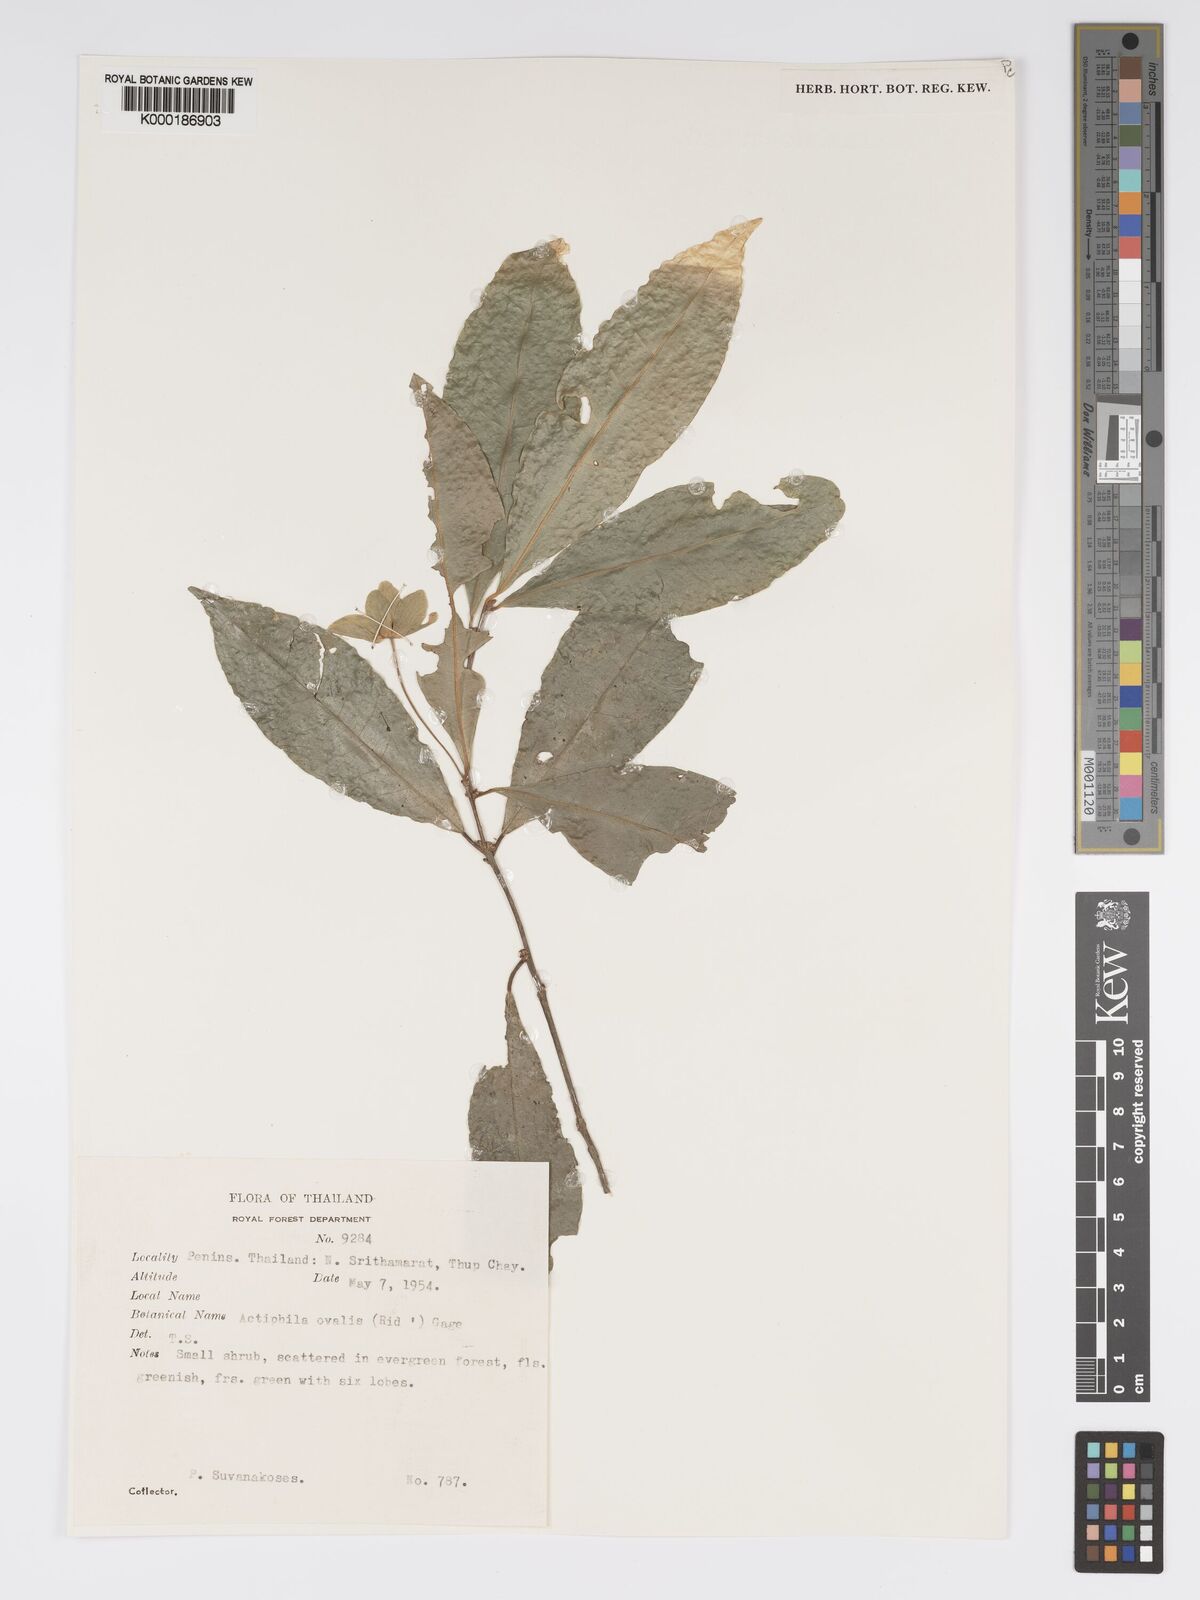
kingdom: Plantae
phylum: Tracheophyta
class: Magnoliopsida
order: Malpighiales
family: Phyllanthaceae
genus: Actephila
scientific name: Actephila ovalis
